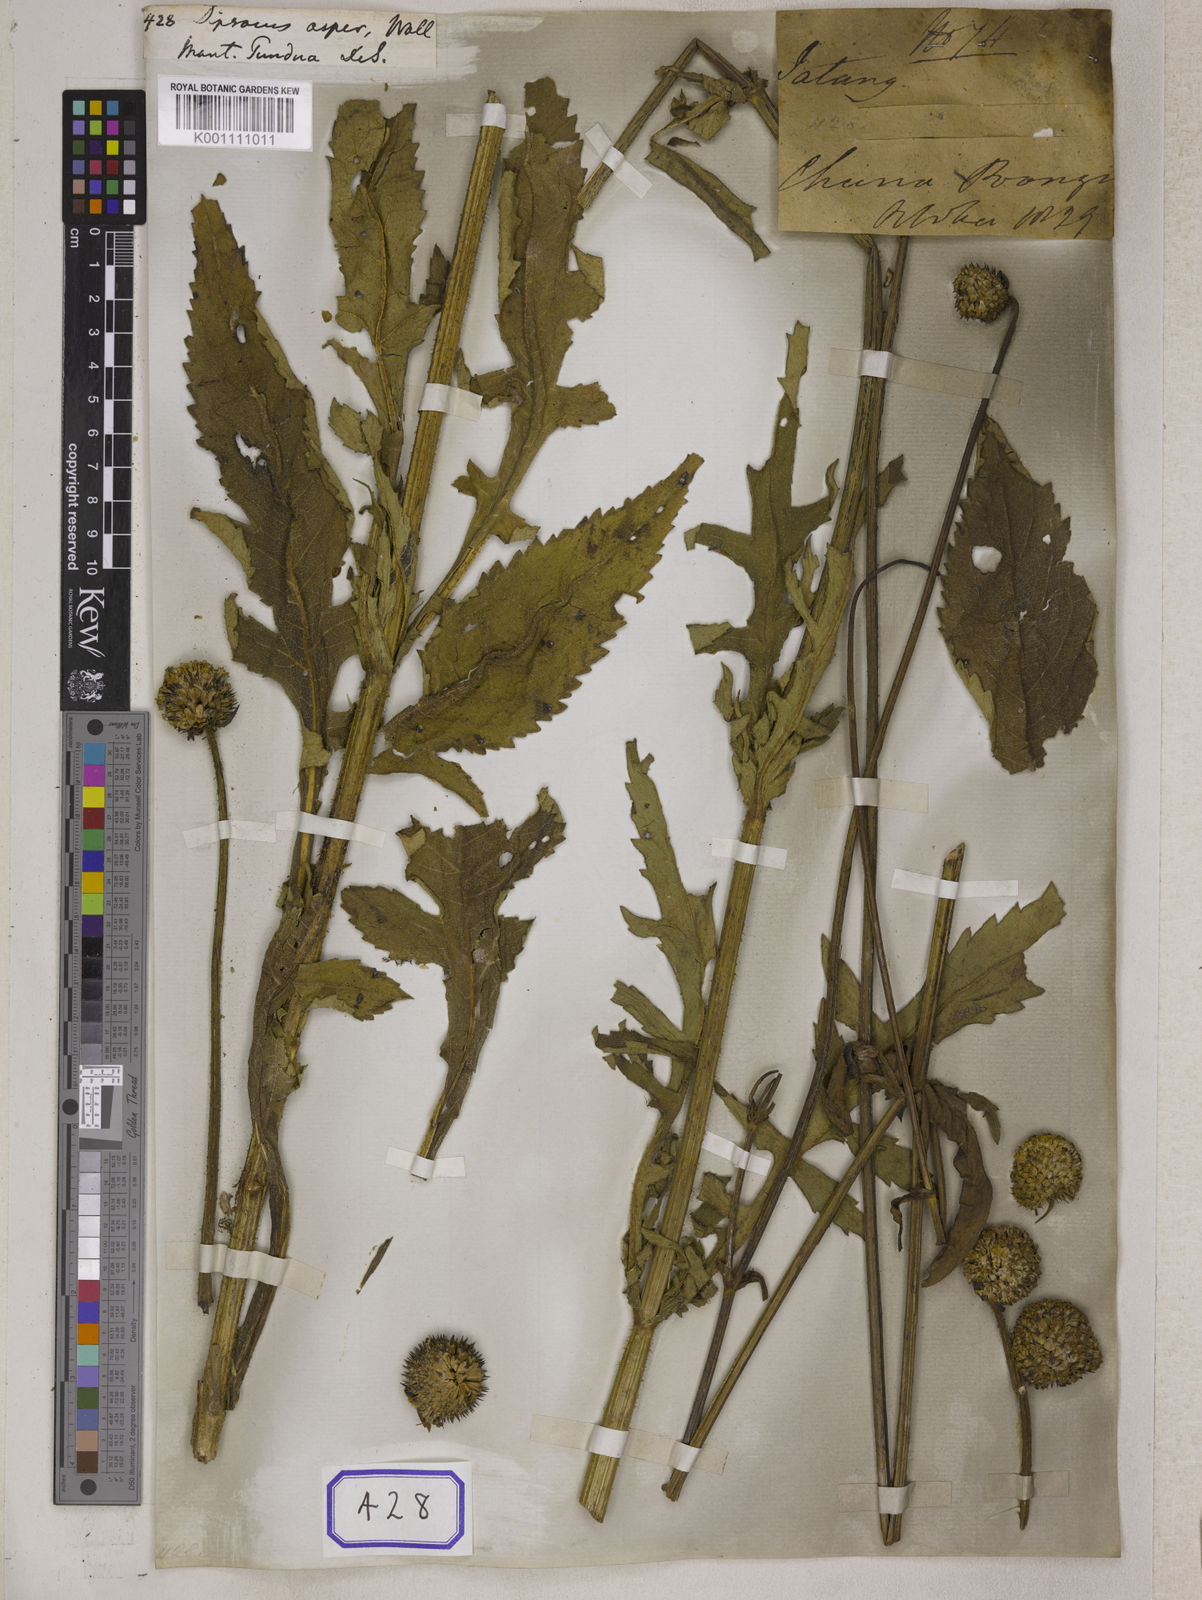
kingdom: Plantae
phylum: Tracheophyta
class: Magnoliopsida
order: Dipsacales
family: Caprifoliaceae
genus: Dipsacus
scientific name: Dipsacus
